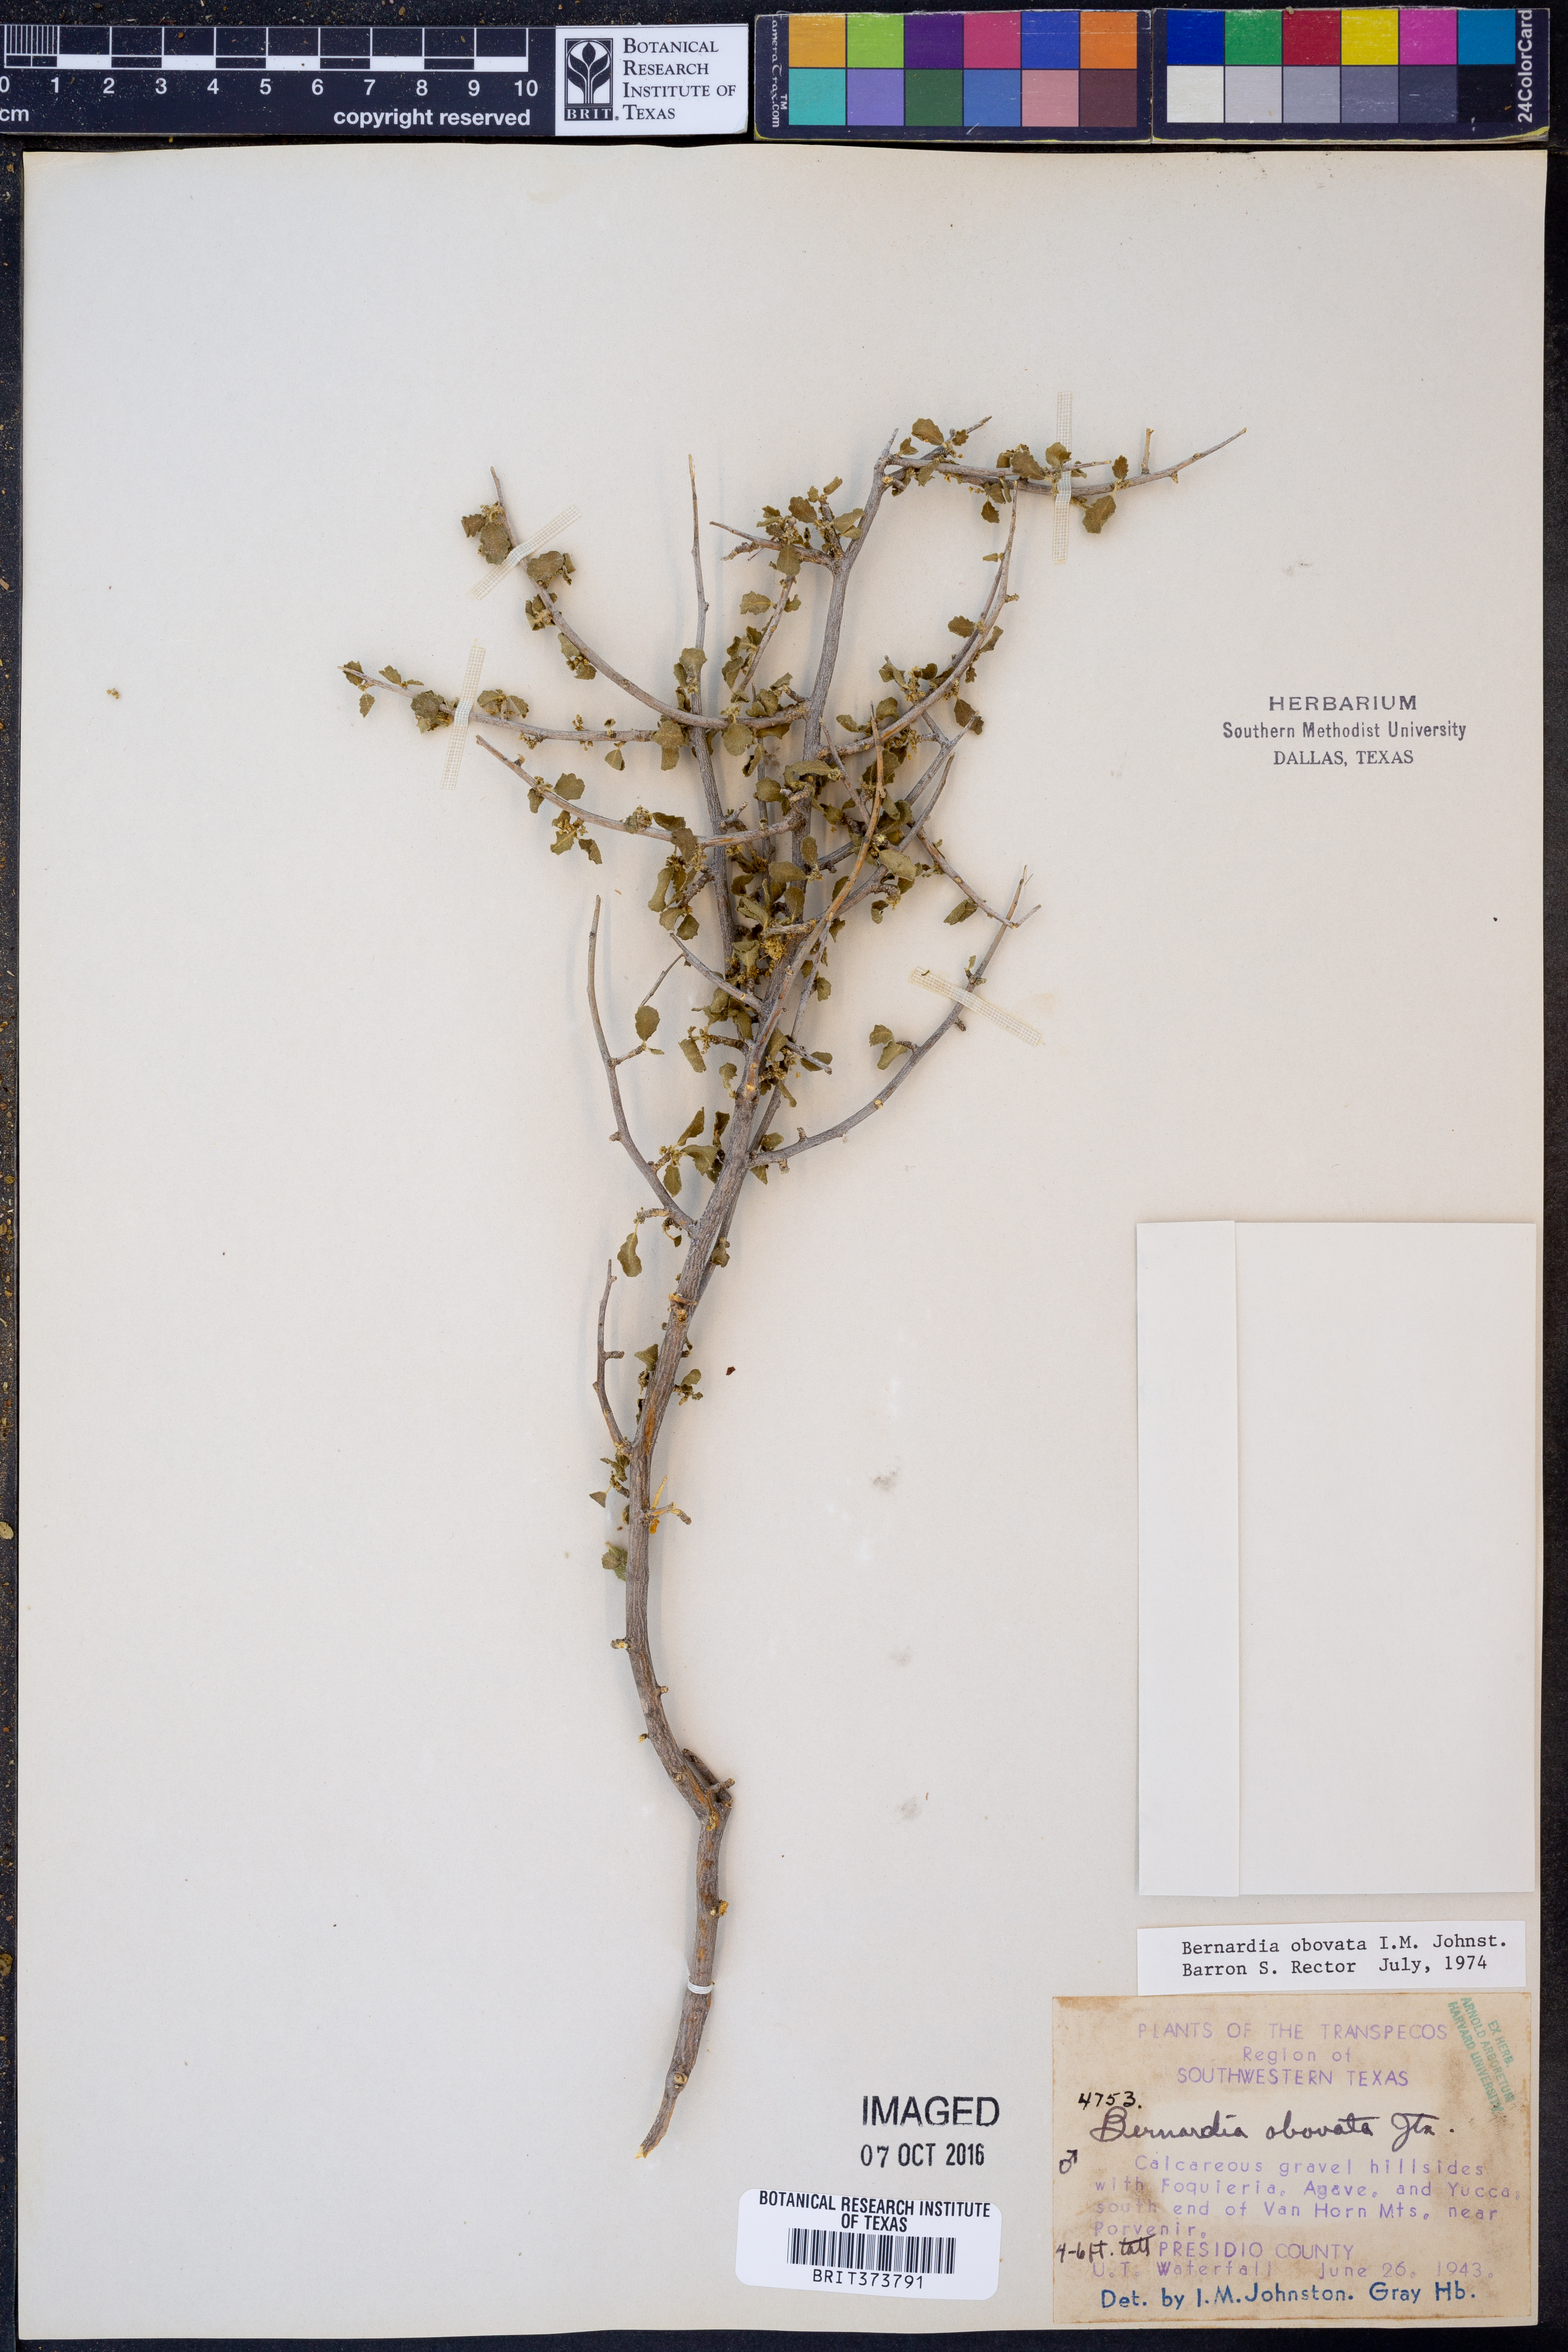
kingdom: Plantae
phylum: Tracheophyta
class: Magnoliopsida
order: Malpighiales
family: Euphorbiaceae
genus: Bernardia
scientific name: Bernardia obovata
